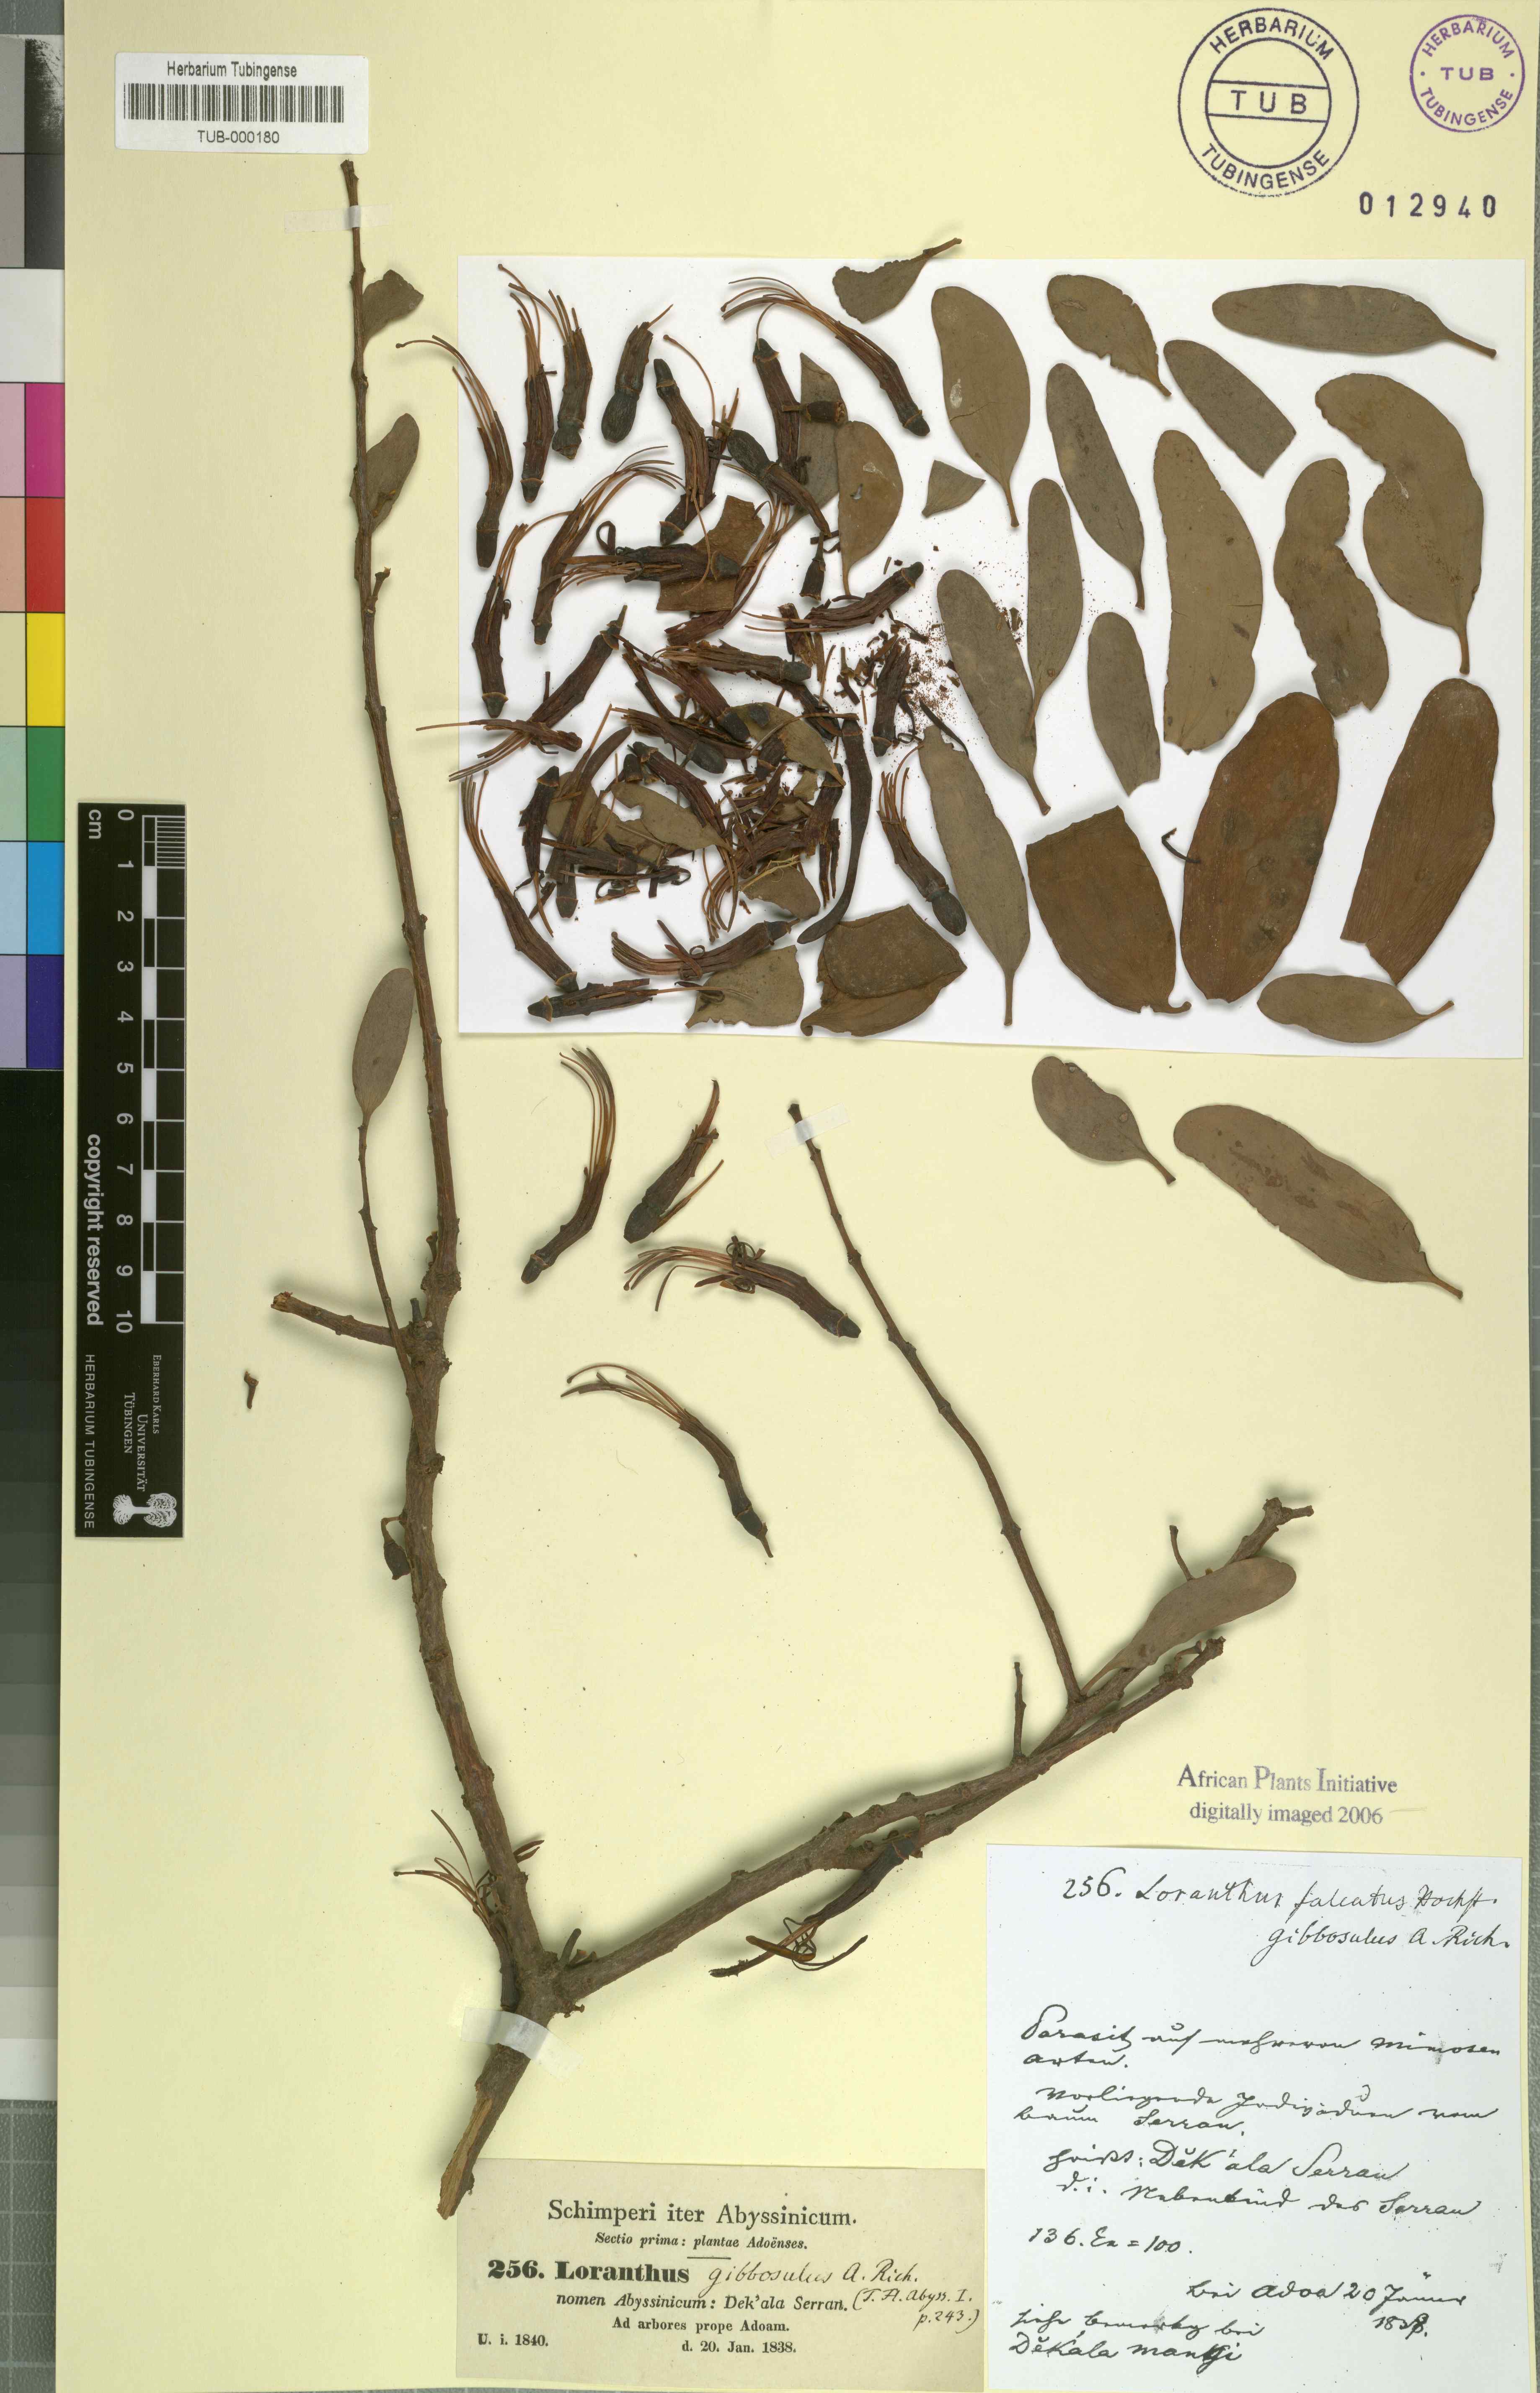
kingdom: Plantae
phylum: Tracheophyta
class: Magnoliopsida
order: Santalales
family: Loranthaceae
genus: Plicosepalus
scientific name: Plicosepalus acaciae
